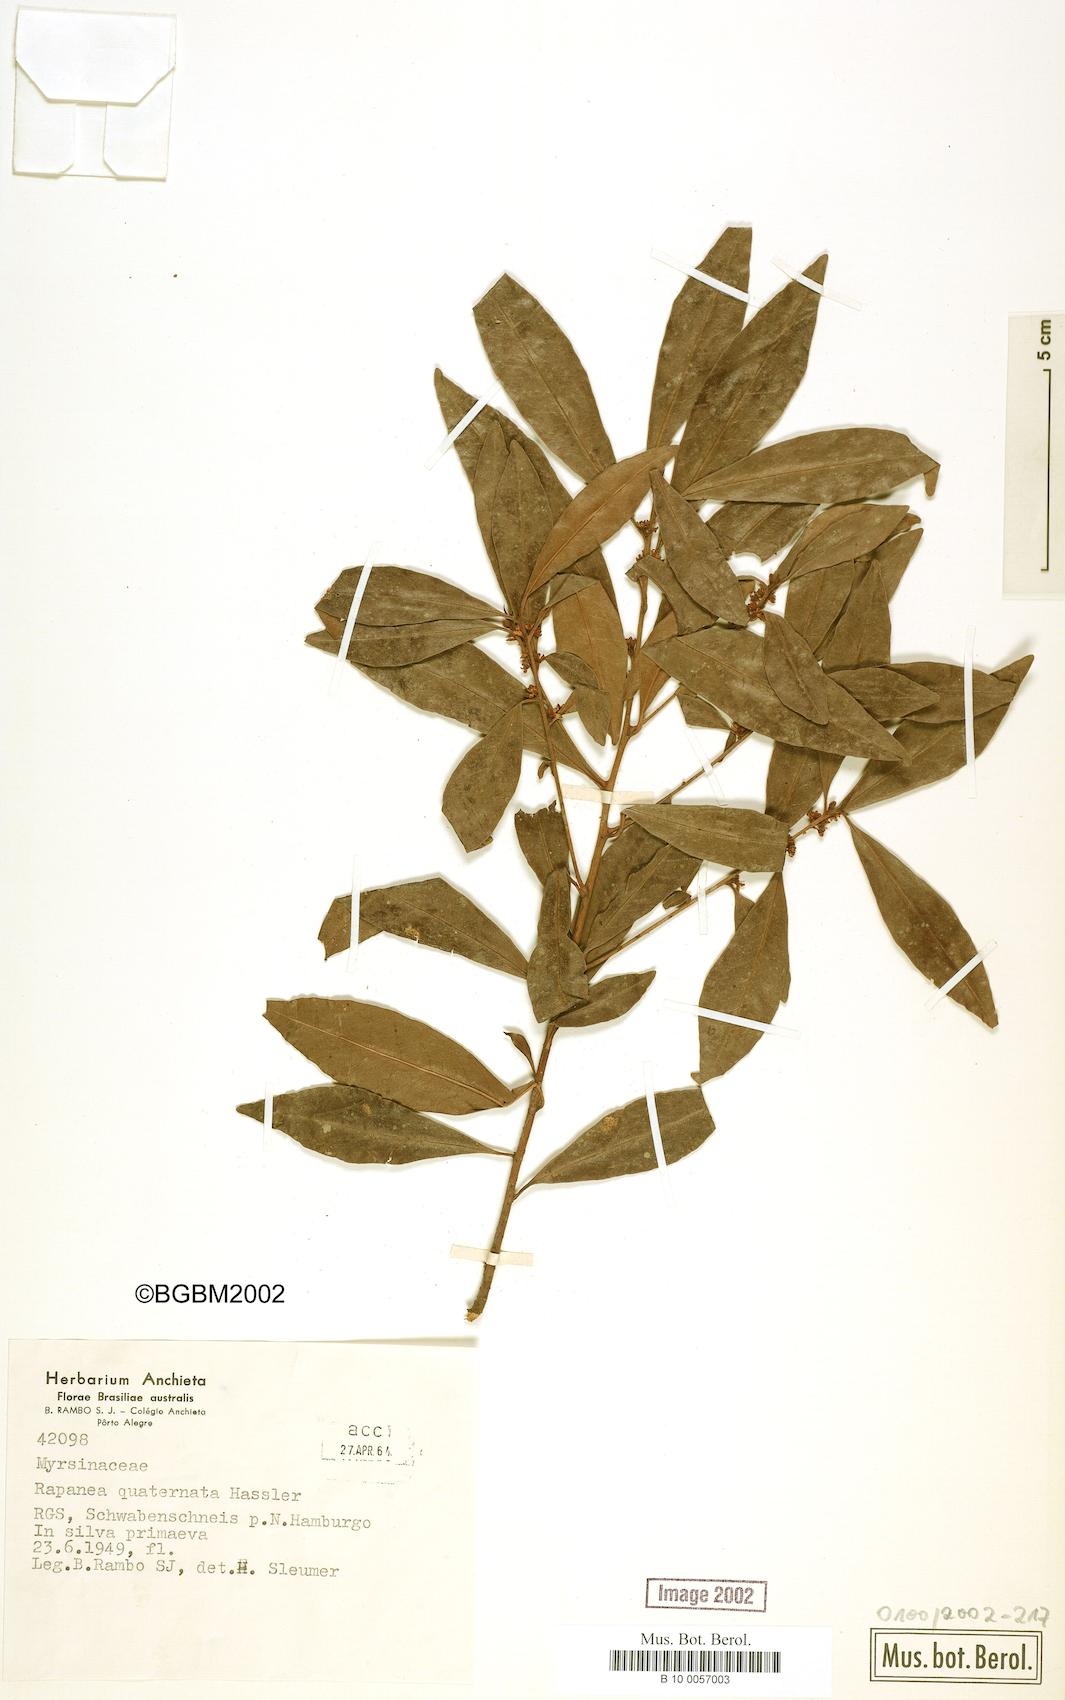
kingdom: Plantae
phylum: Tracheophyta
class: Magnoliopsida
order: Ericales
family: Primulaceae
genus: Myrsine
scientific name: Myrsine loefgrenii
